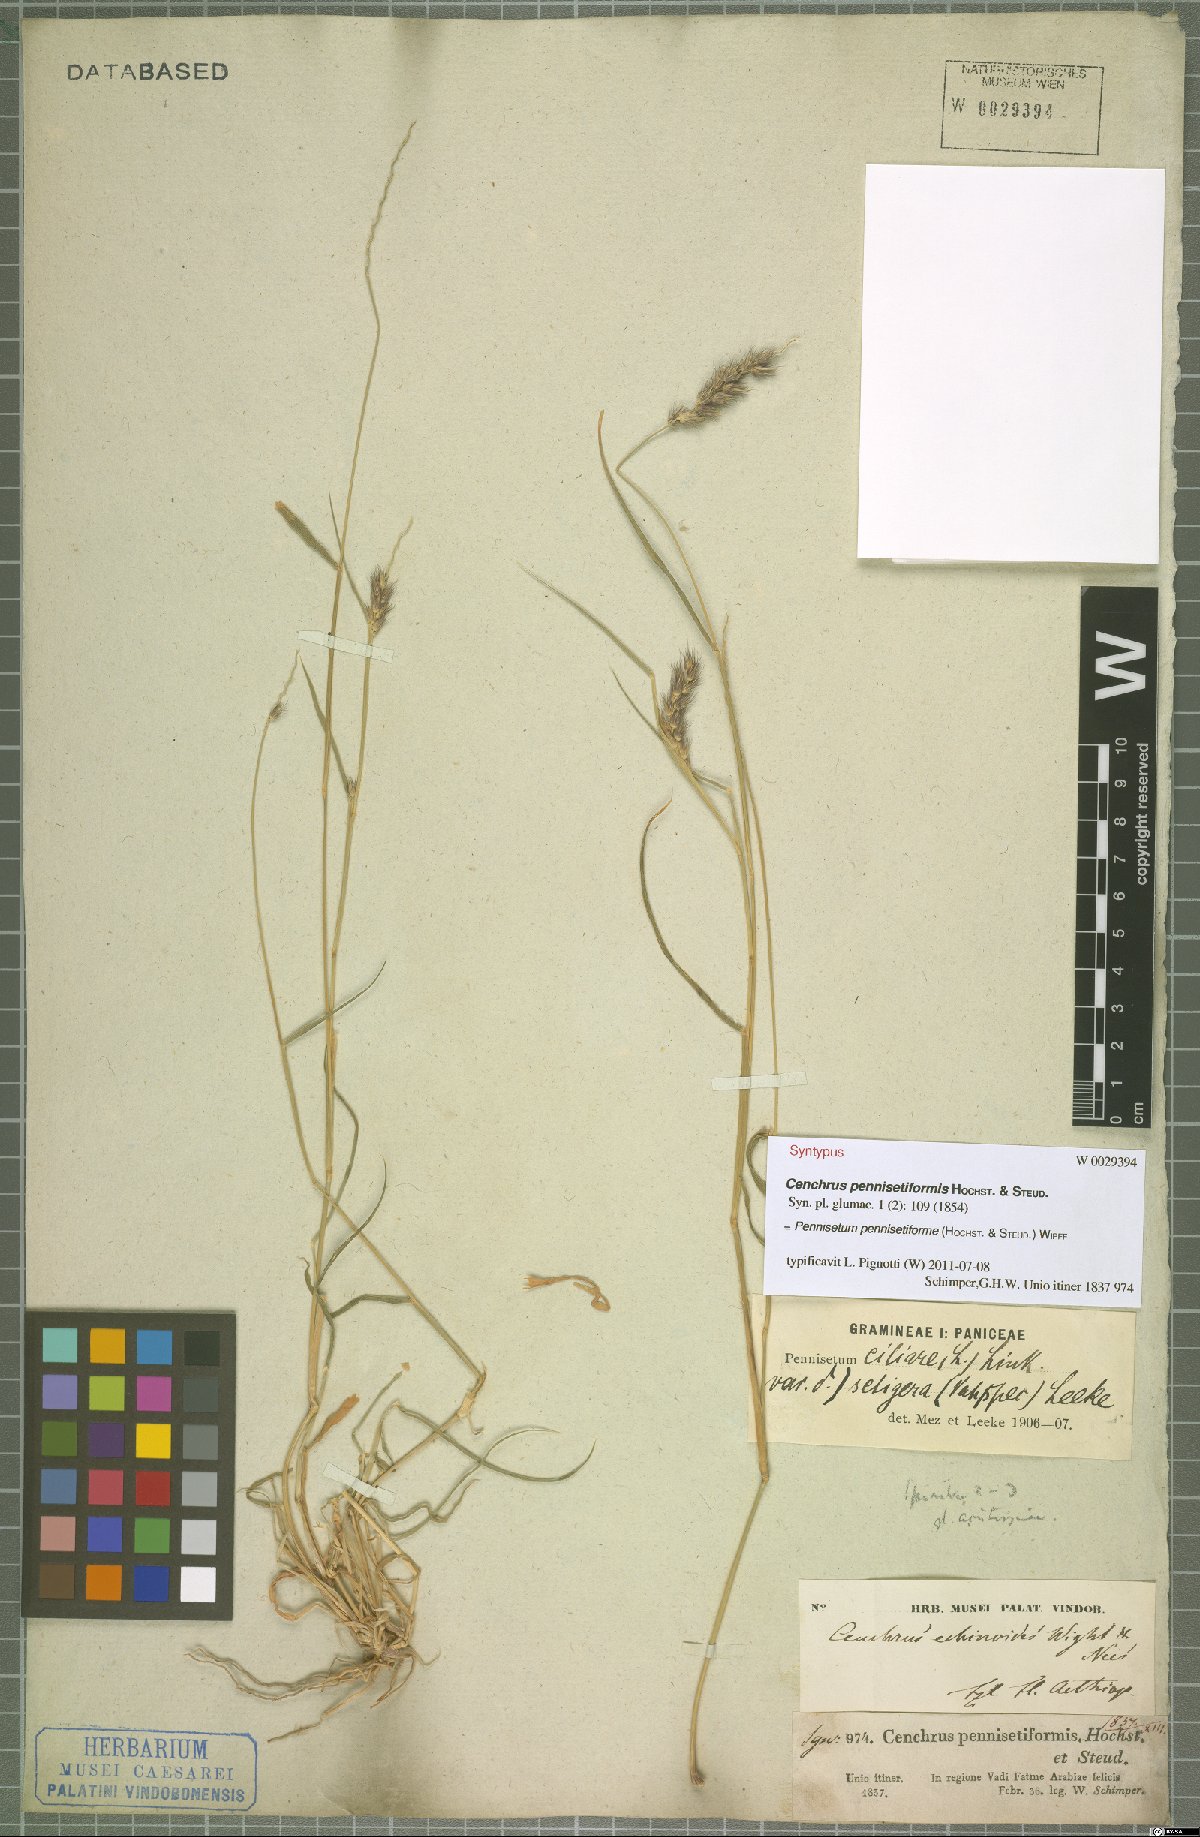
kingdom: Plantae
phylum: Tracheophyta
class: Liliopsida
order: Poales
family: Poaceae
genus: Cenchrus
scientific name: Cenchrus pennisetiformis
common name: Cloncurry
